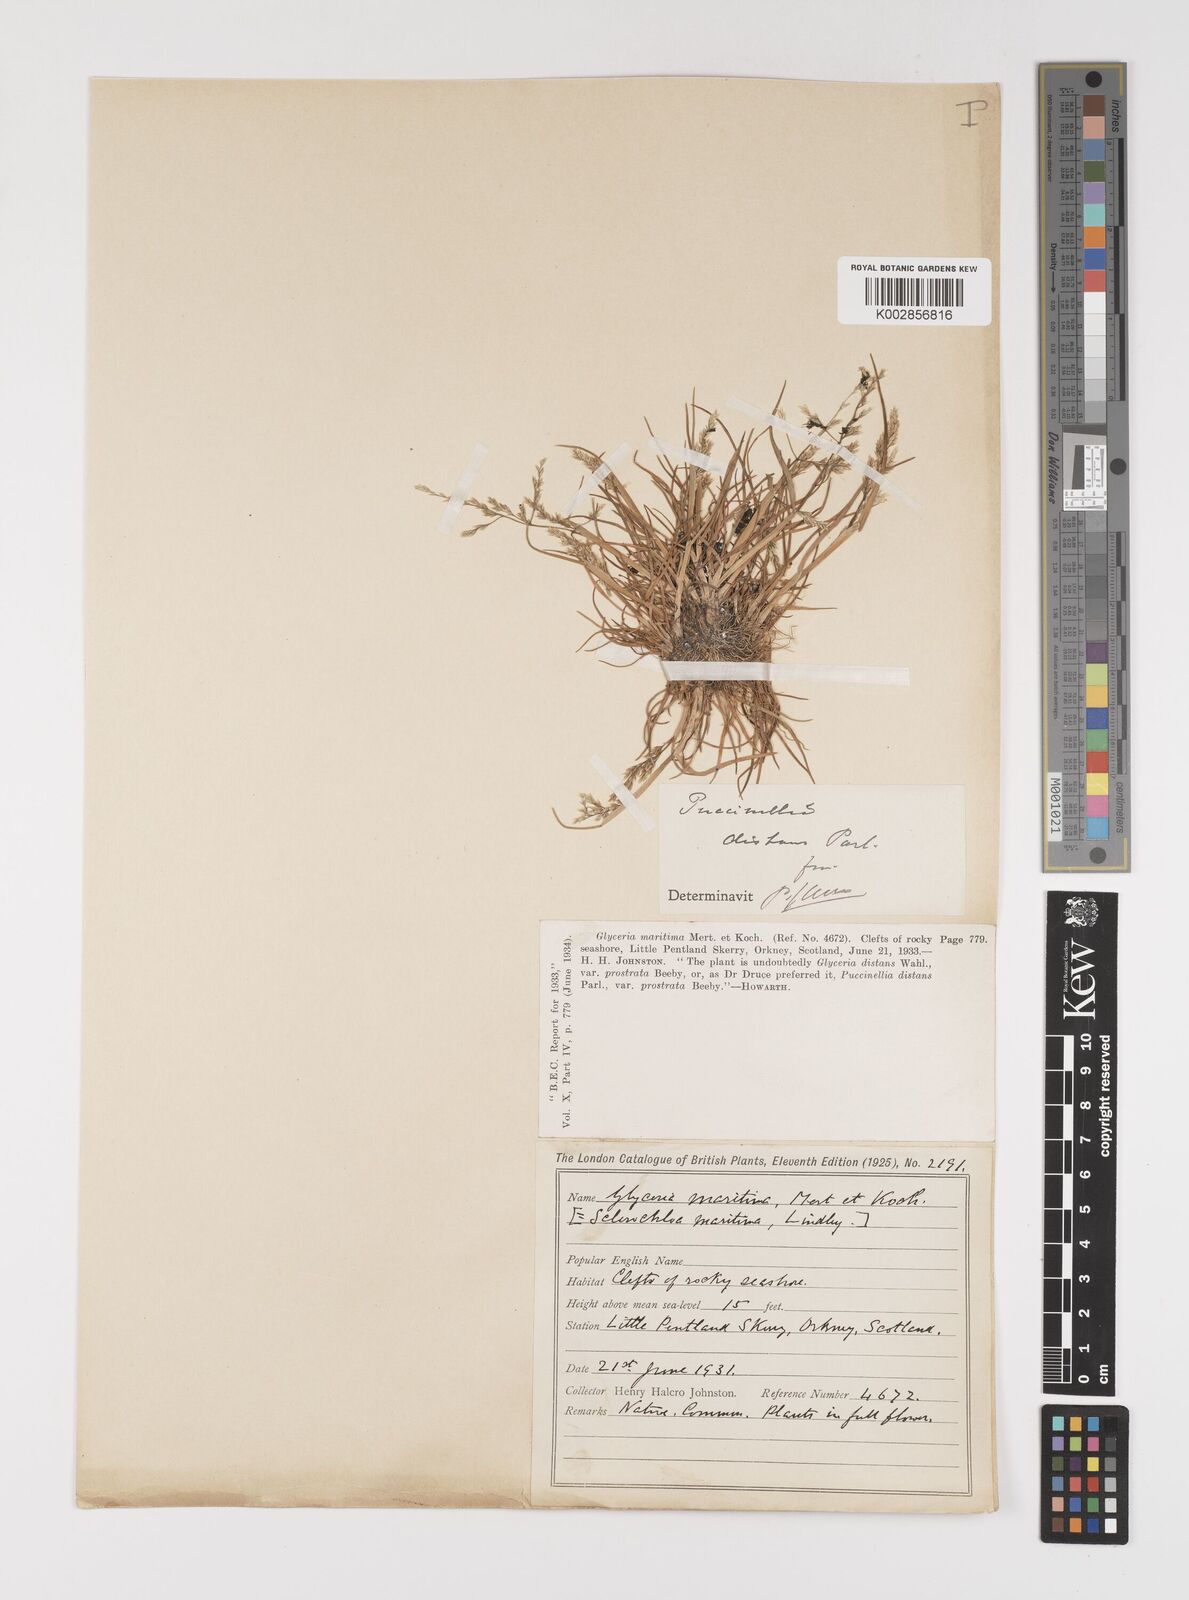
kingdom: Plantae
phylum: Tracheophyta
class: Liliopsida
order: Poales
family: Poaceae
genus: Puccinellia
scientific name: Puccinellia distans
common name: Weeping alkaligrass
